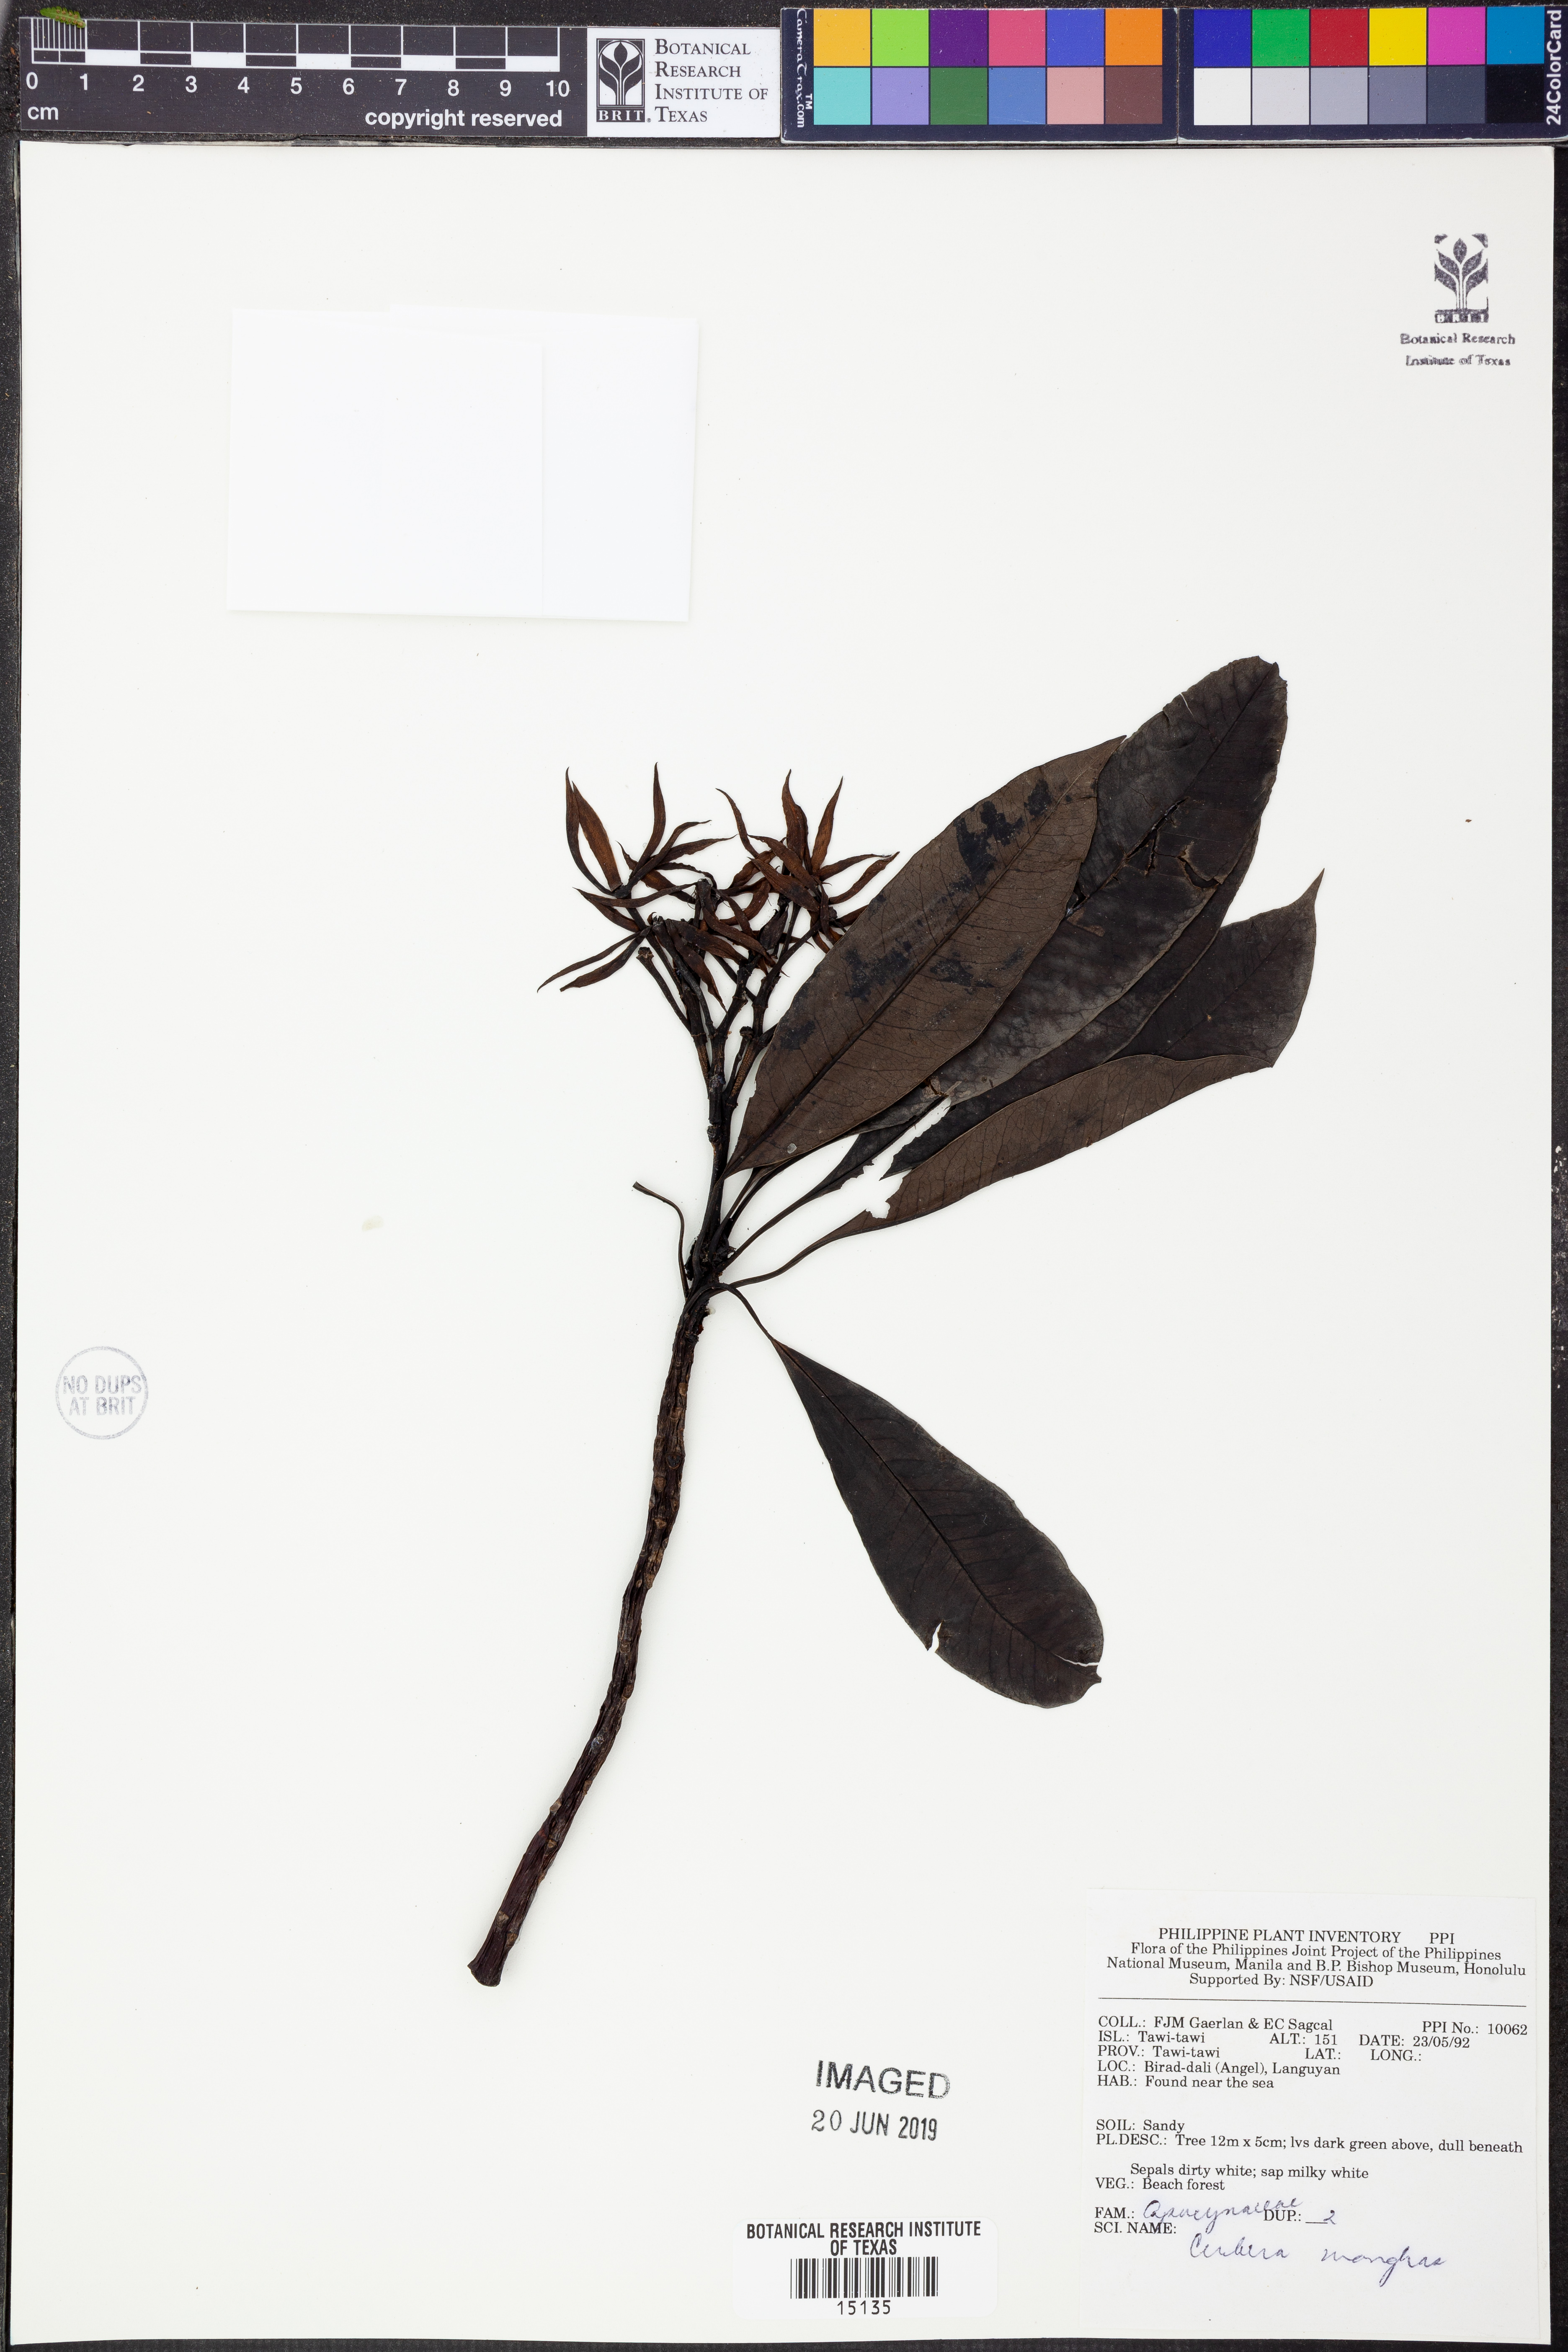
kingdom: Plantae
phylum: Tracheophyta
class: Magnoliopsida
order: Gentianales
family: Apocynaceae
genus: Cerbera
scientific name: Cerbera manghas
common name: Reva
